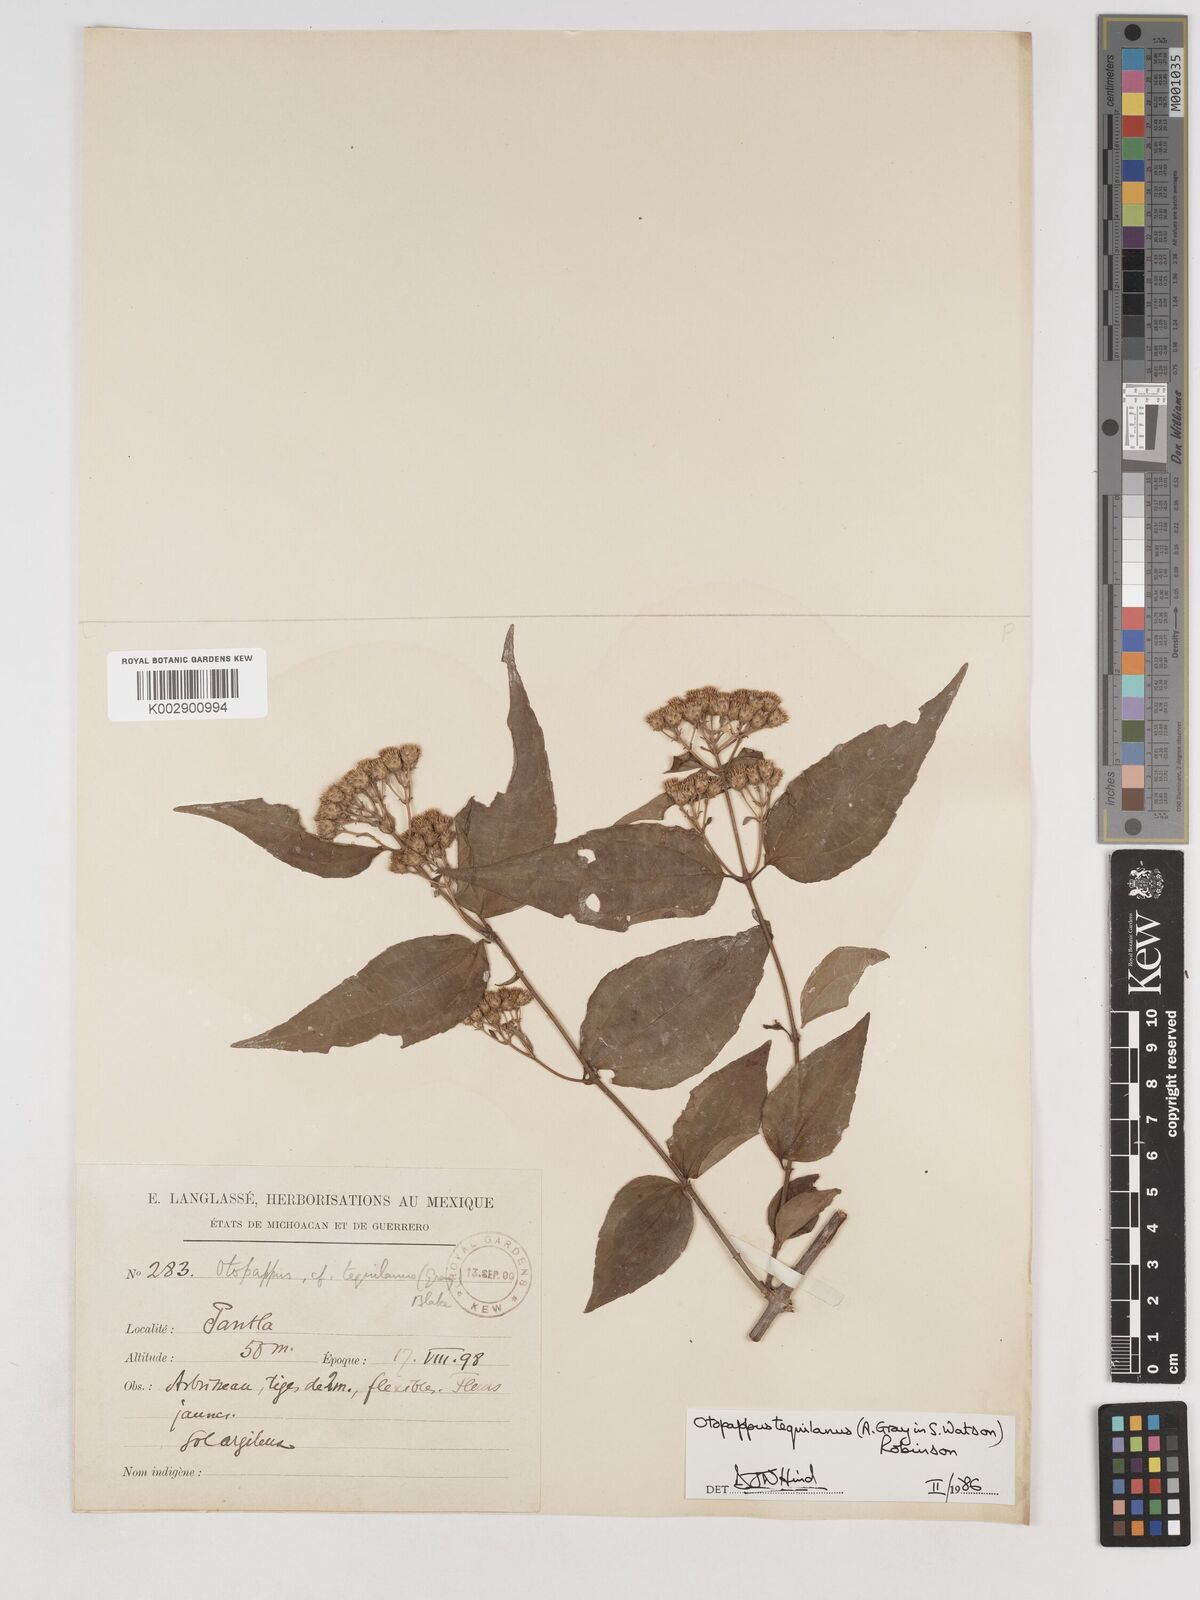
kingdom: Plantae
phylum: Tracheophyta
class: Magnoliopsida
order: Asterales
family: Asteraceae
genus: Otopappus
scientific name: Otopappus tequilanus
